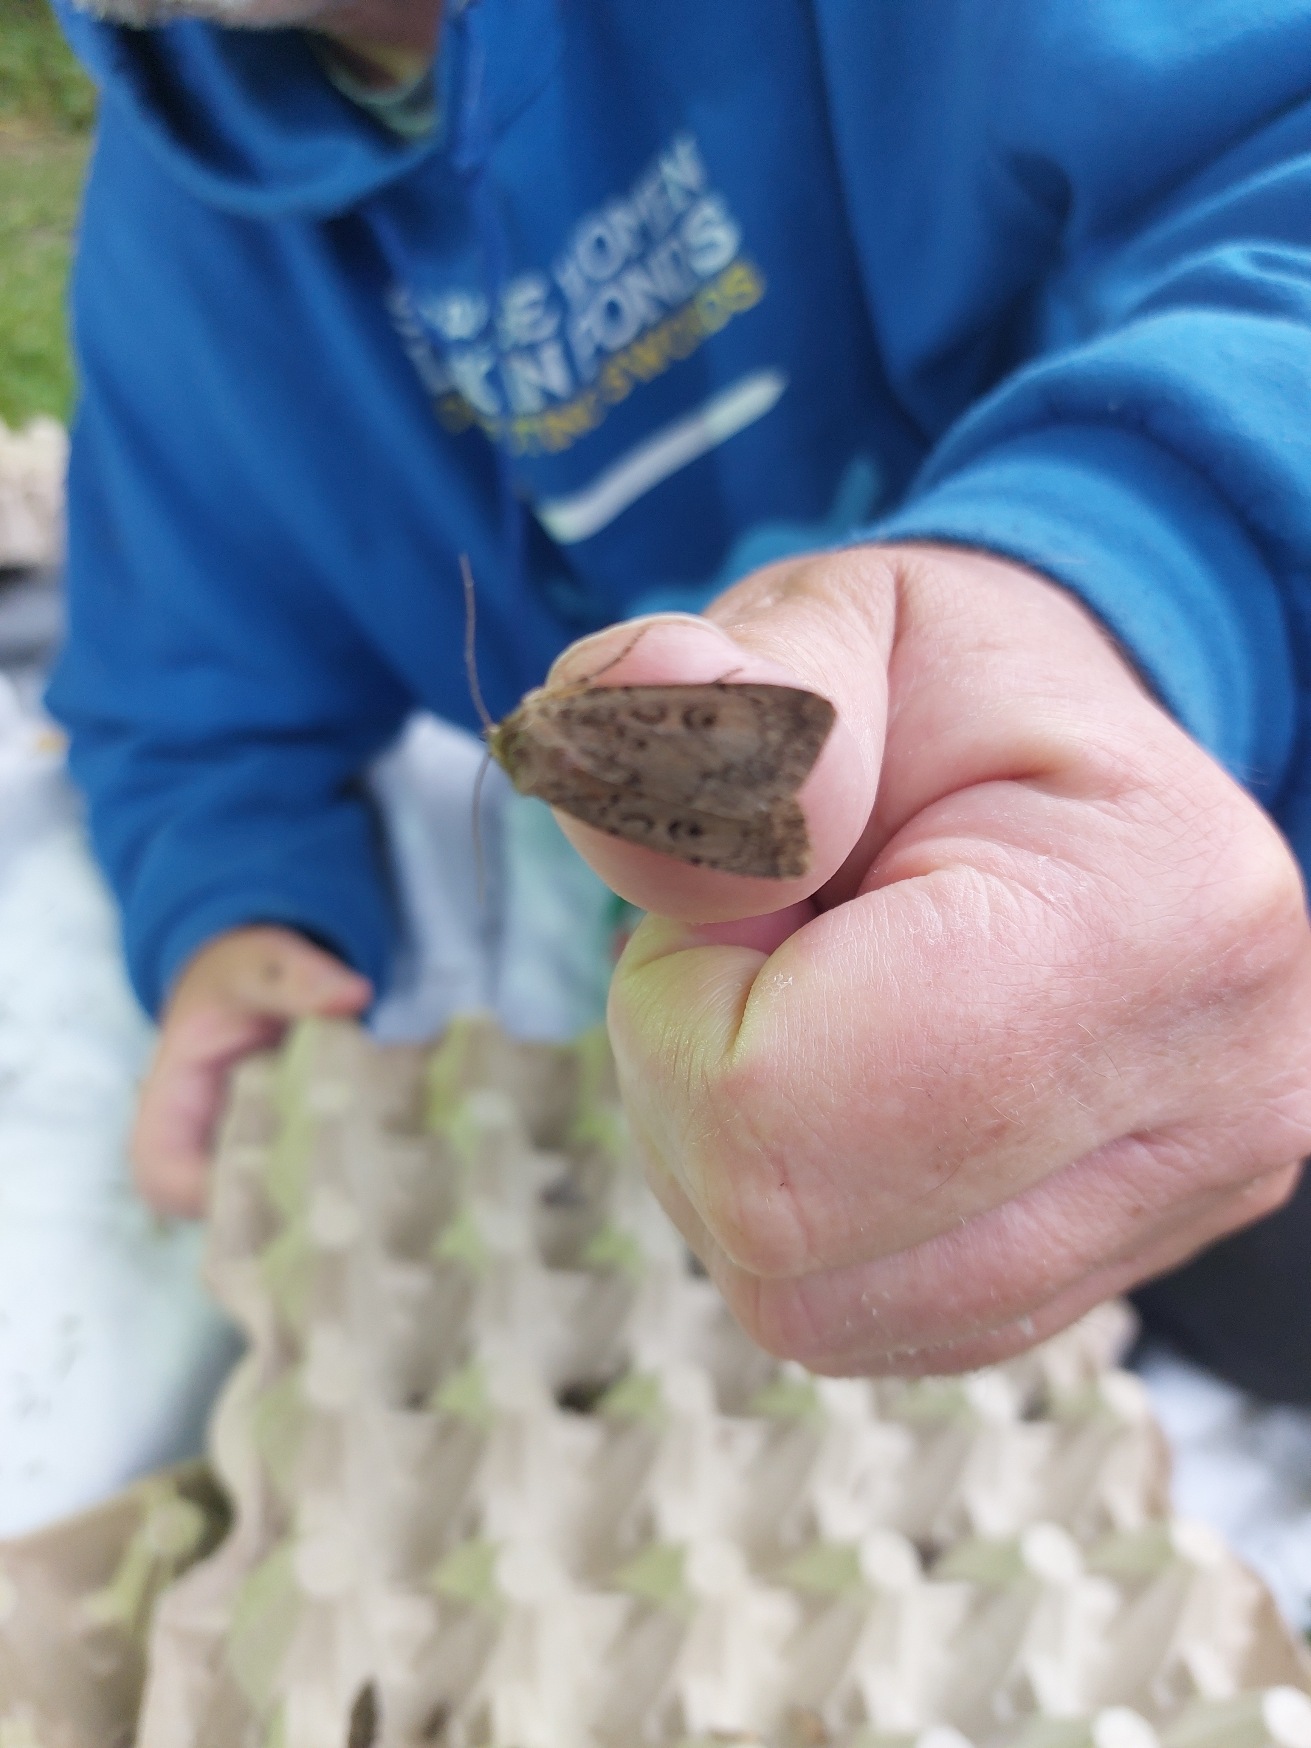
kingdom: Animalia
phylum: Arthropoda
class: Insecta
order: Lepidoptera
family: Noctuidae
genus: Graphiphora
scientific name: Graphiphora augur
